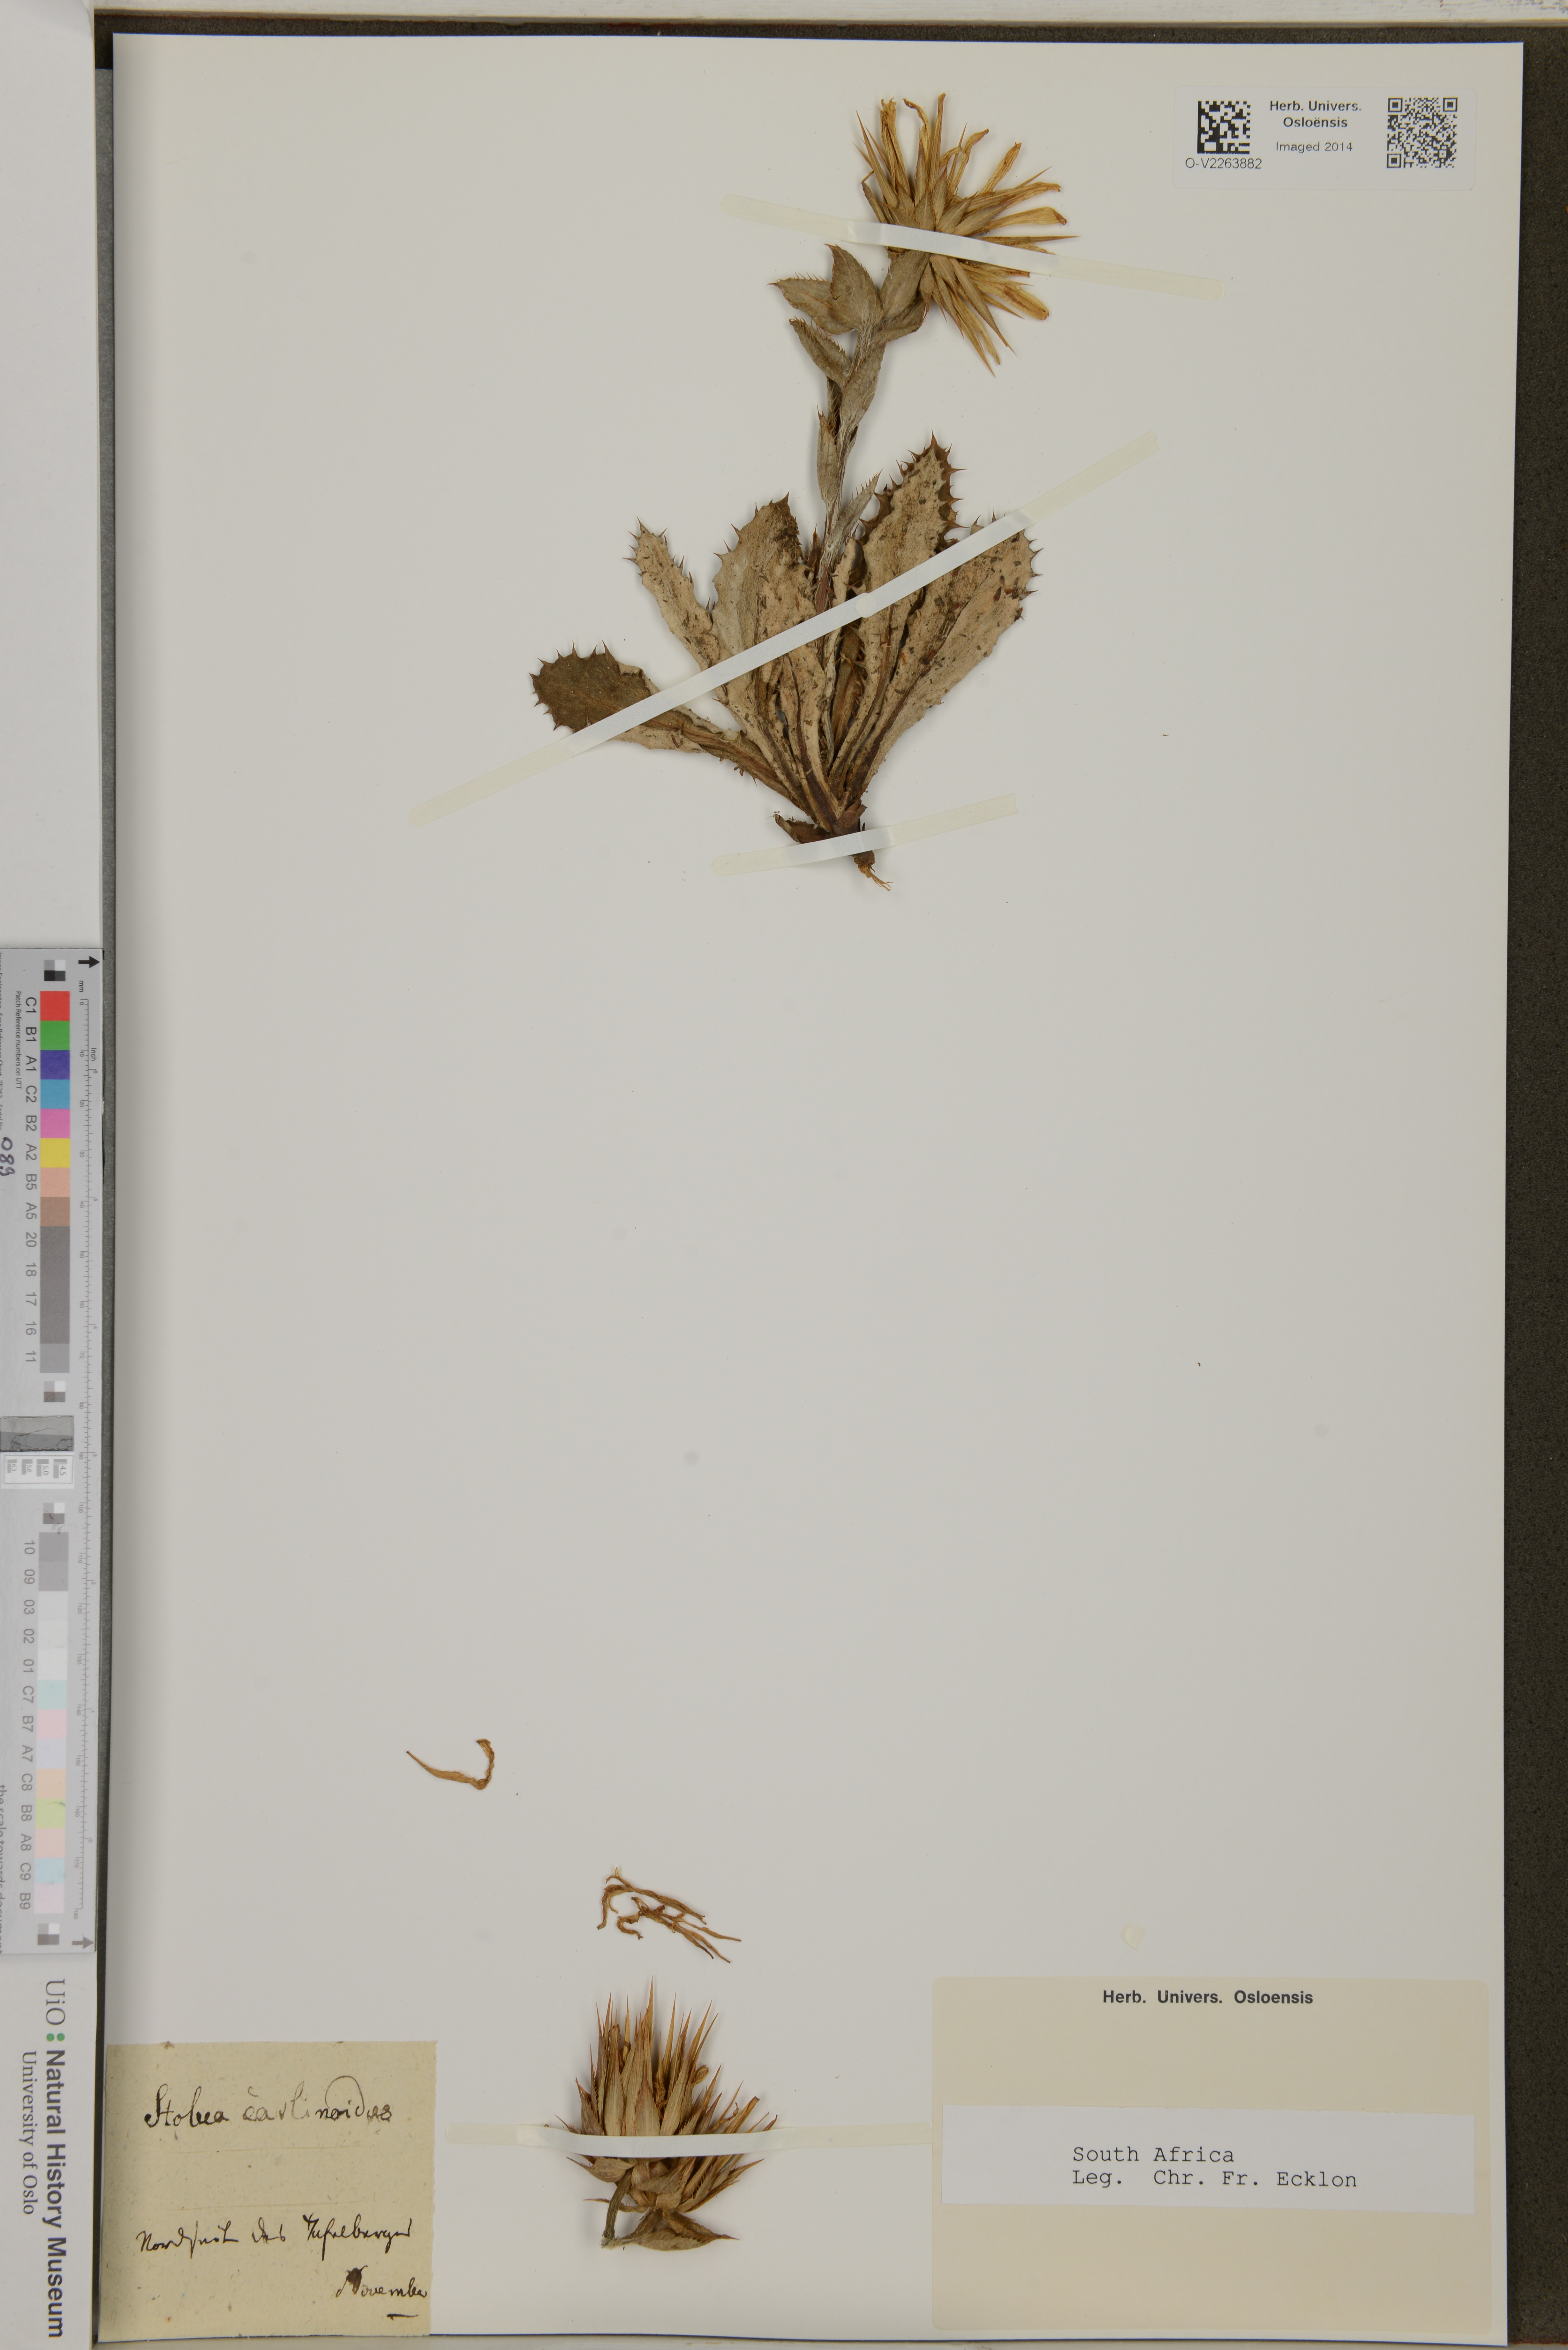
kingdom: Plantae
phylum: Tracheophyta
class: Magnoliopsida
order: Asterales
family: Asteraceae
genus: Berkheya
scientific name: Berkheya
